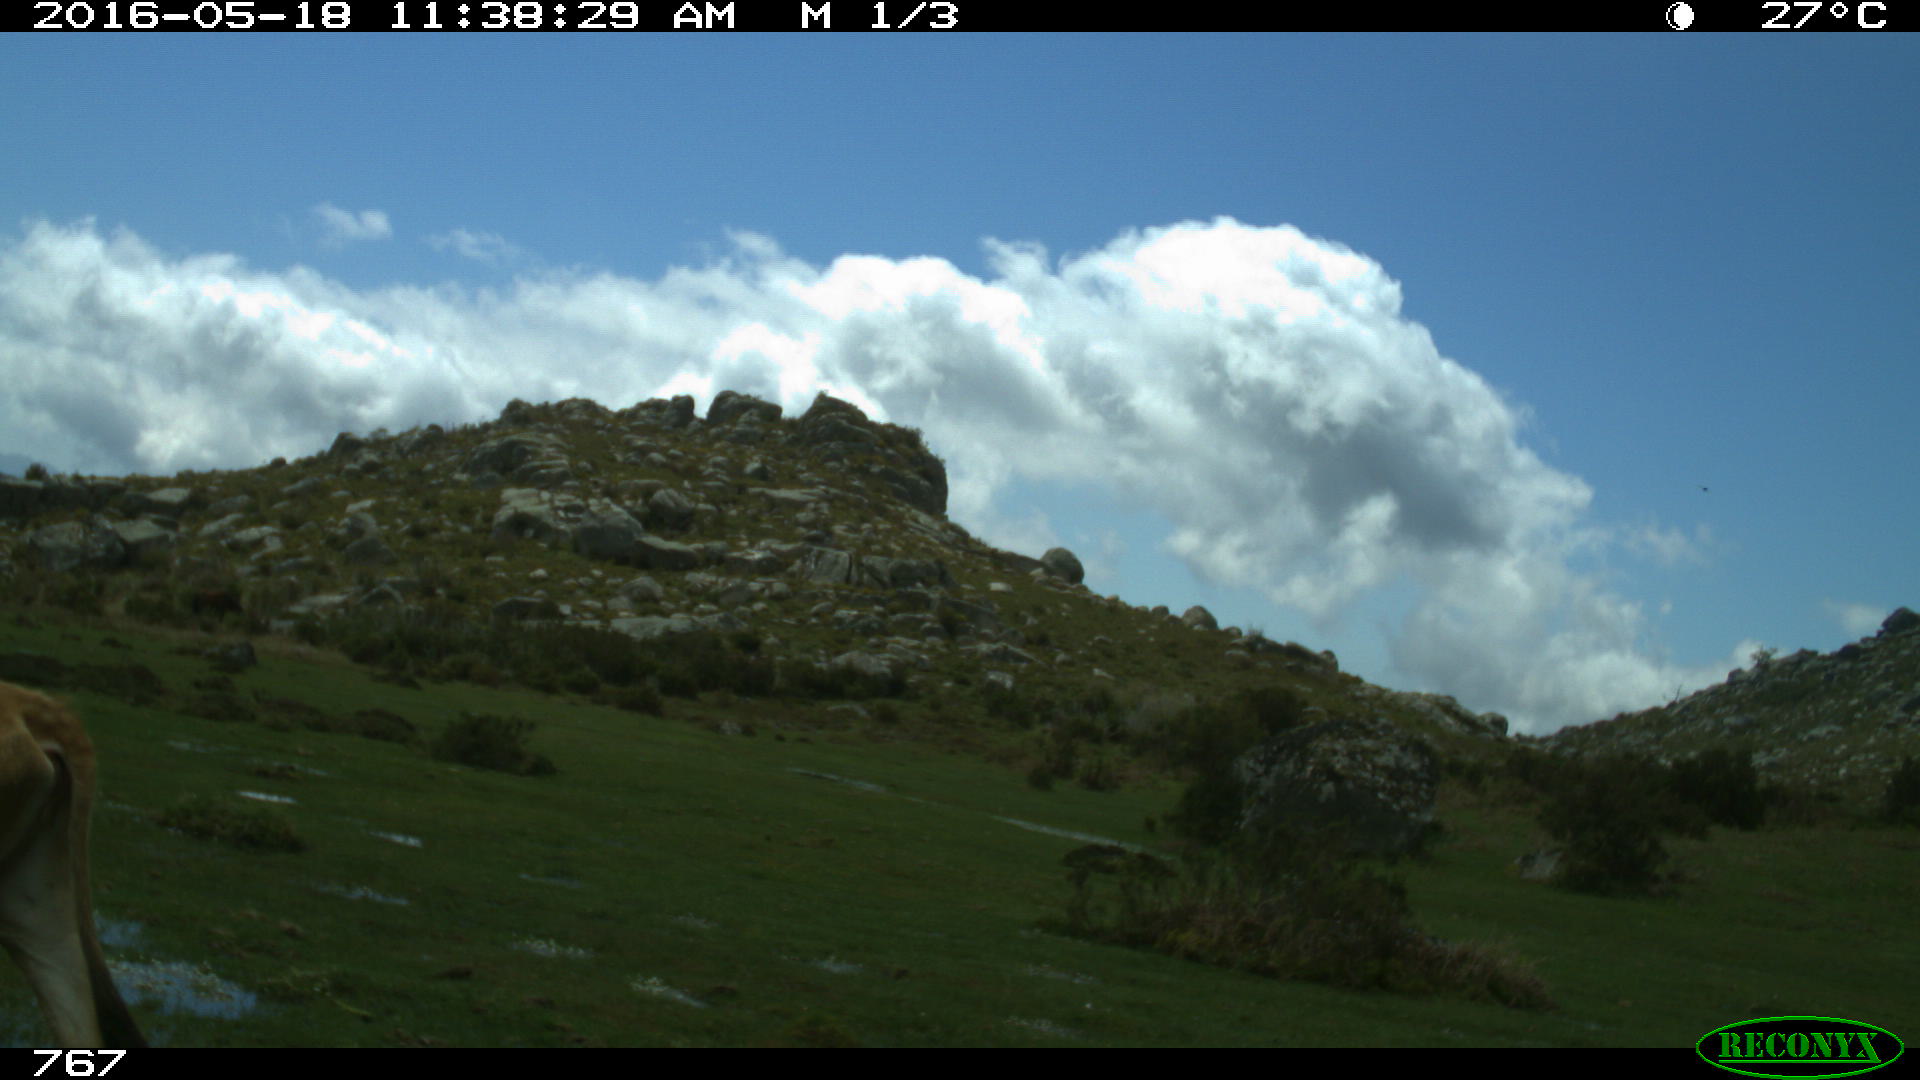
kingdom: Animalia
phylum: Chordata
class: Mammalia
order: Artiodactyla
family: Bovidae
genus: Bos
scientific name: Bos taurus
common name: Domesticated cattle
